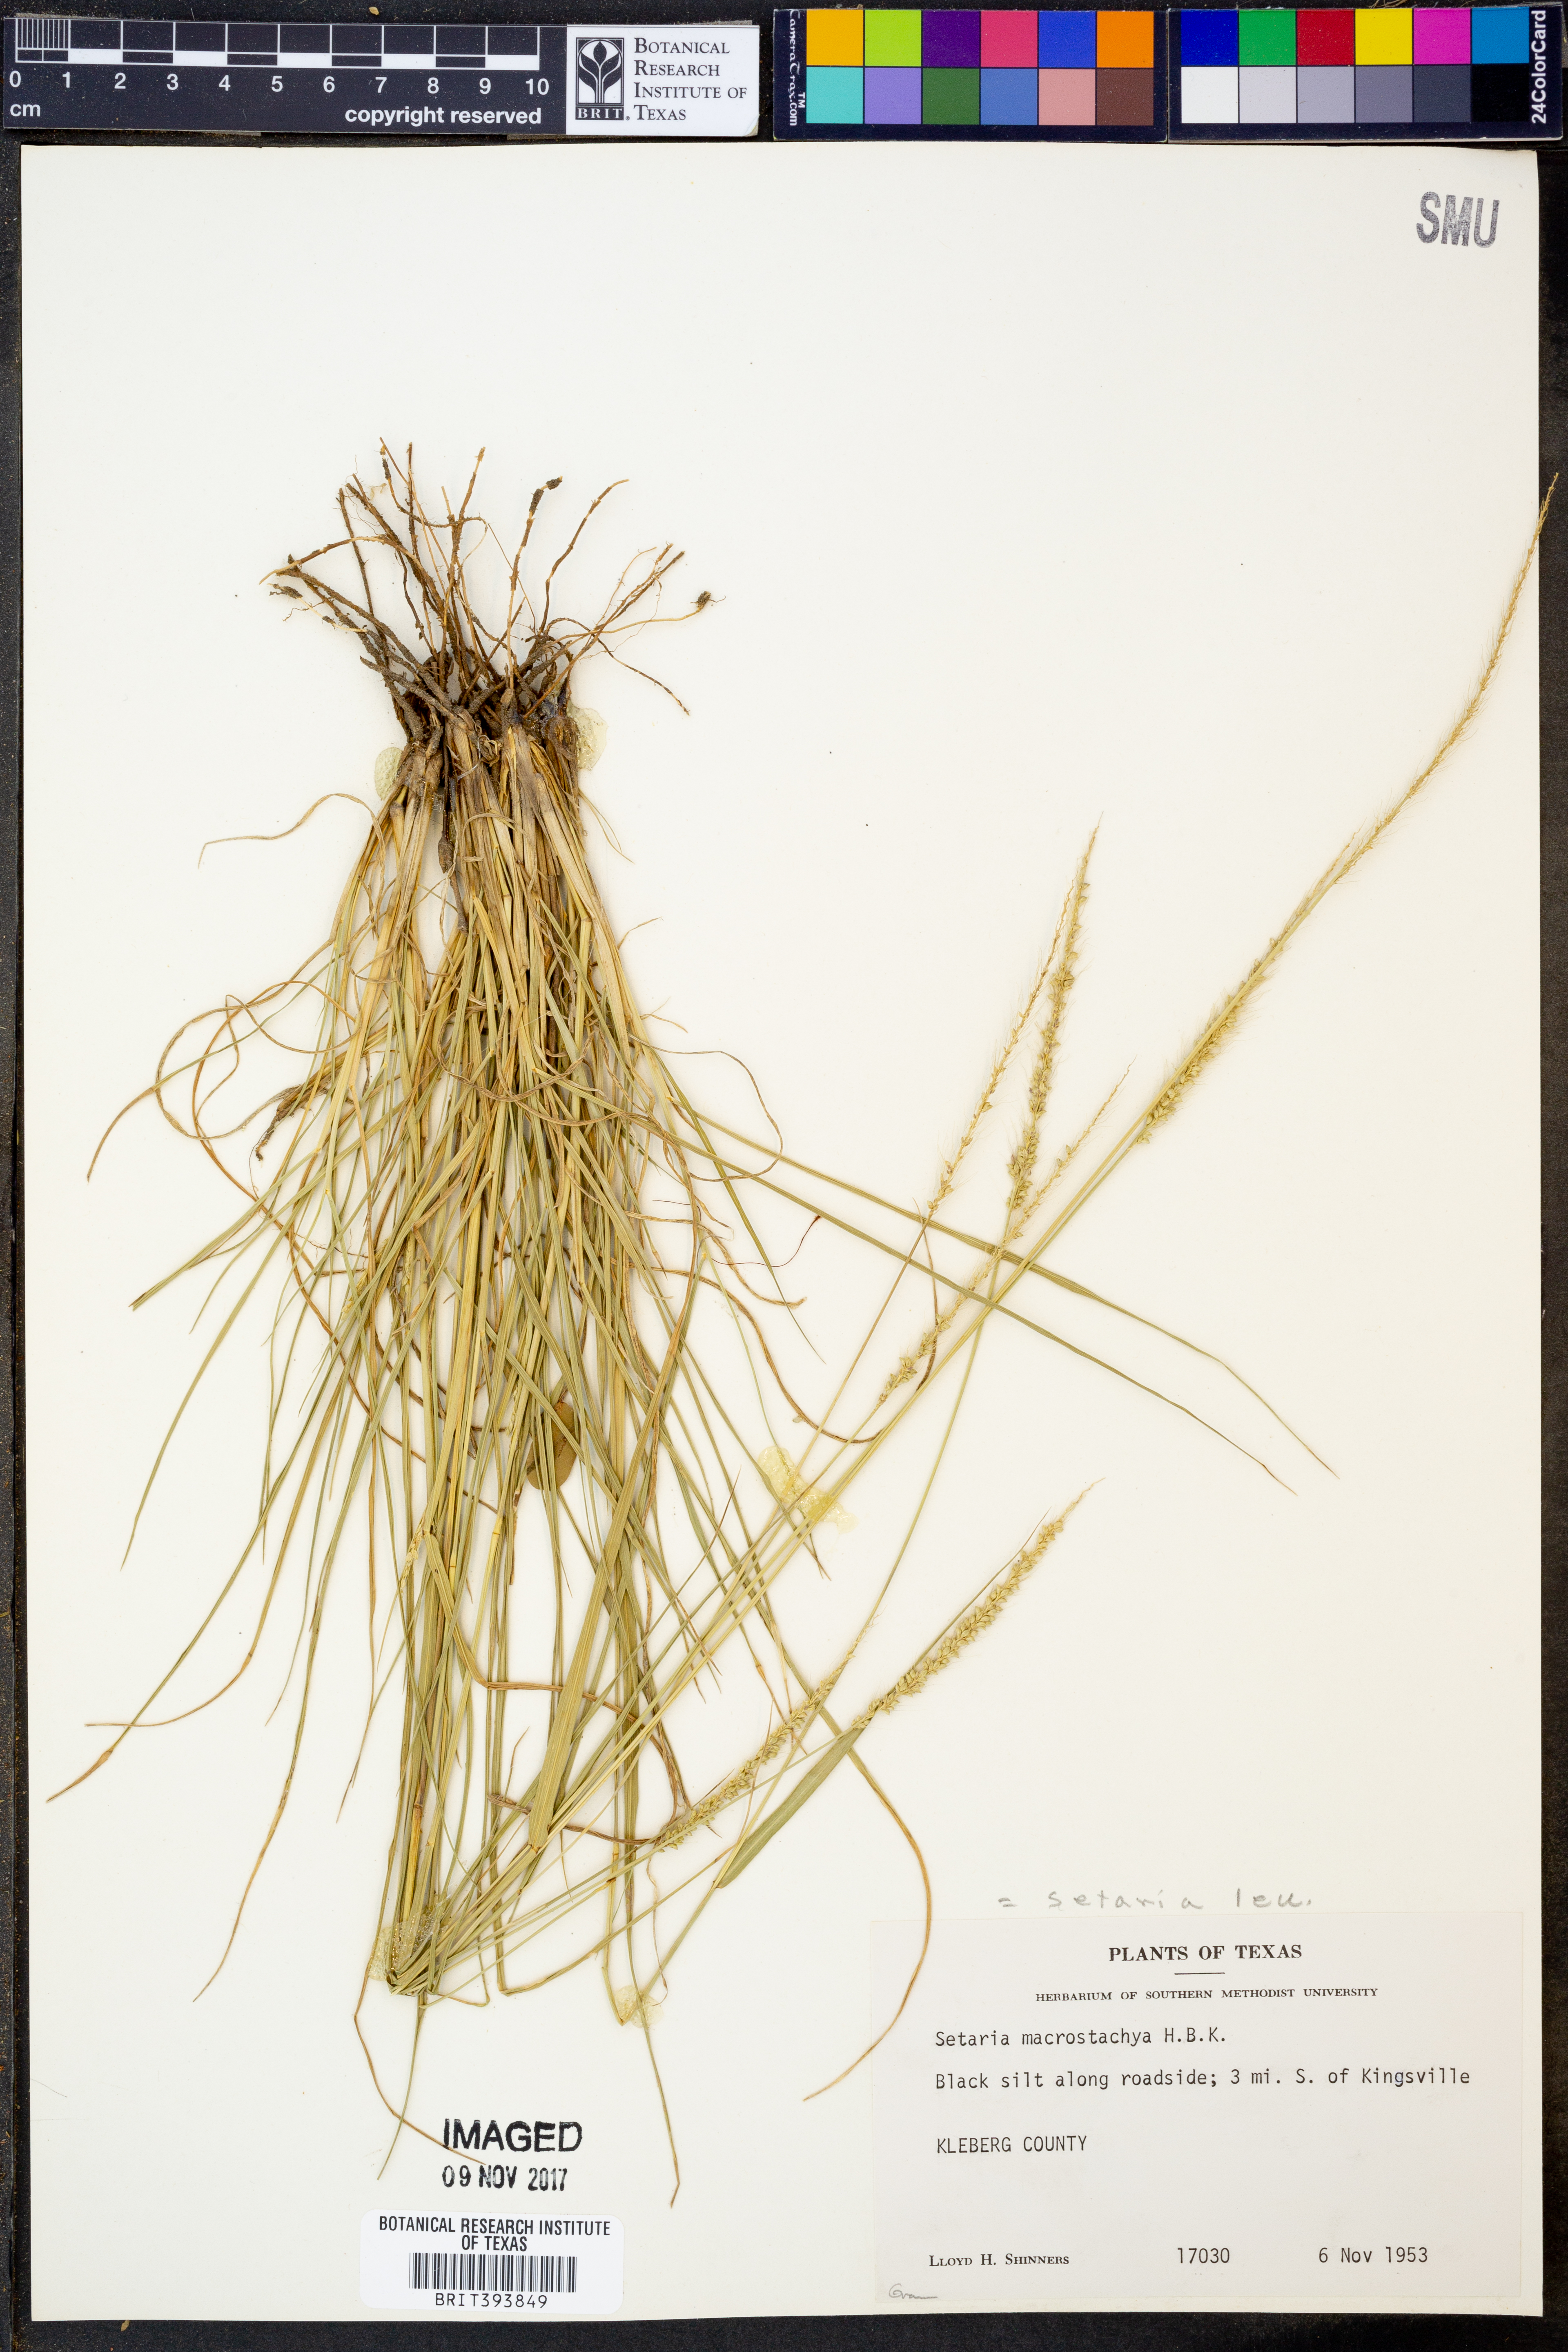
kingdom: Plantae
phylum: Tracheophyta
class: Liliopsida
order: Poales
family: Poaceae
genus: Setaria
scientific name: Setaria macrostachya
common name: Plains bristle grass
